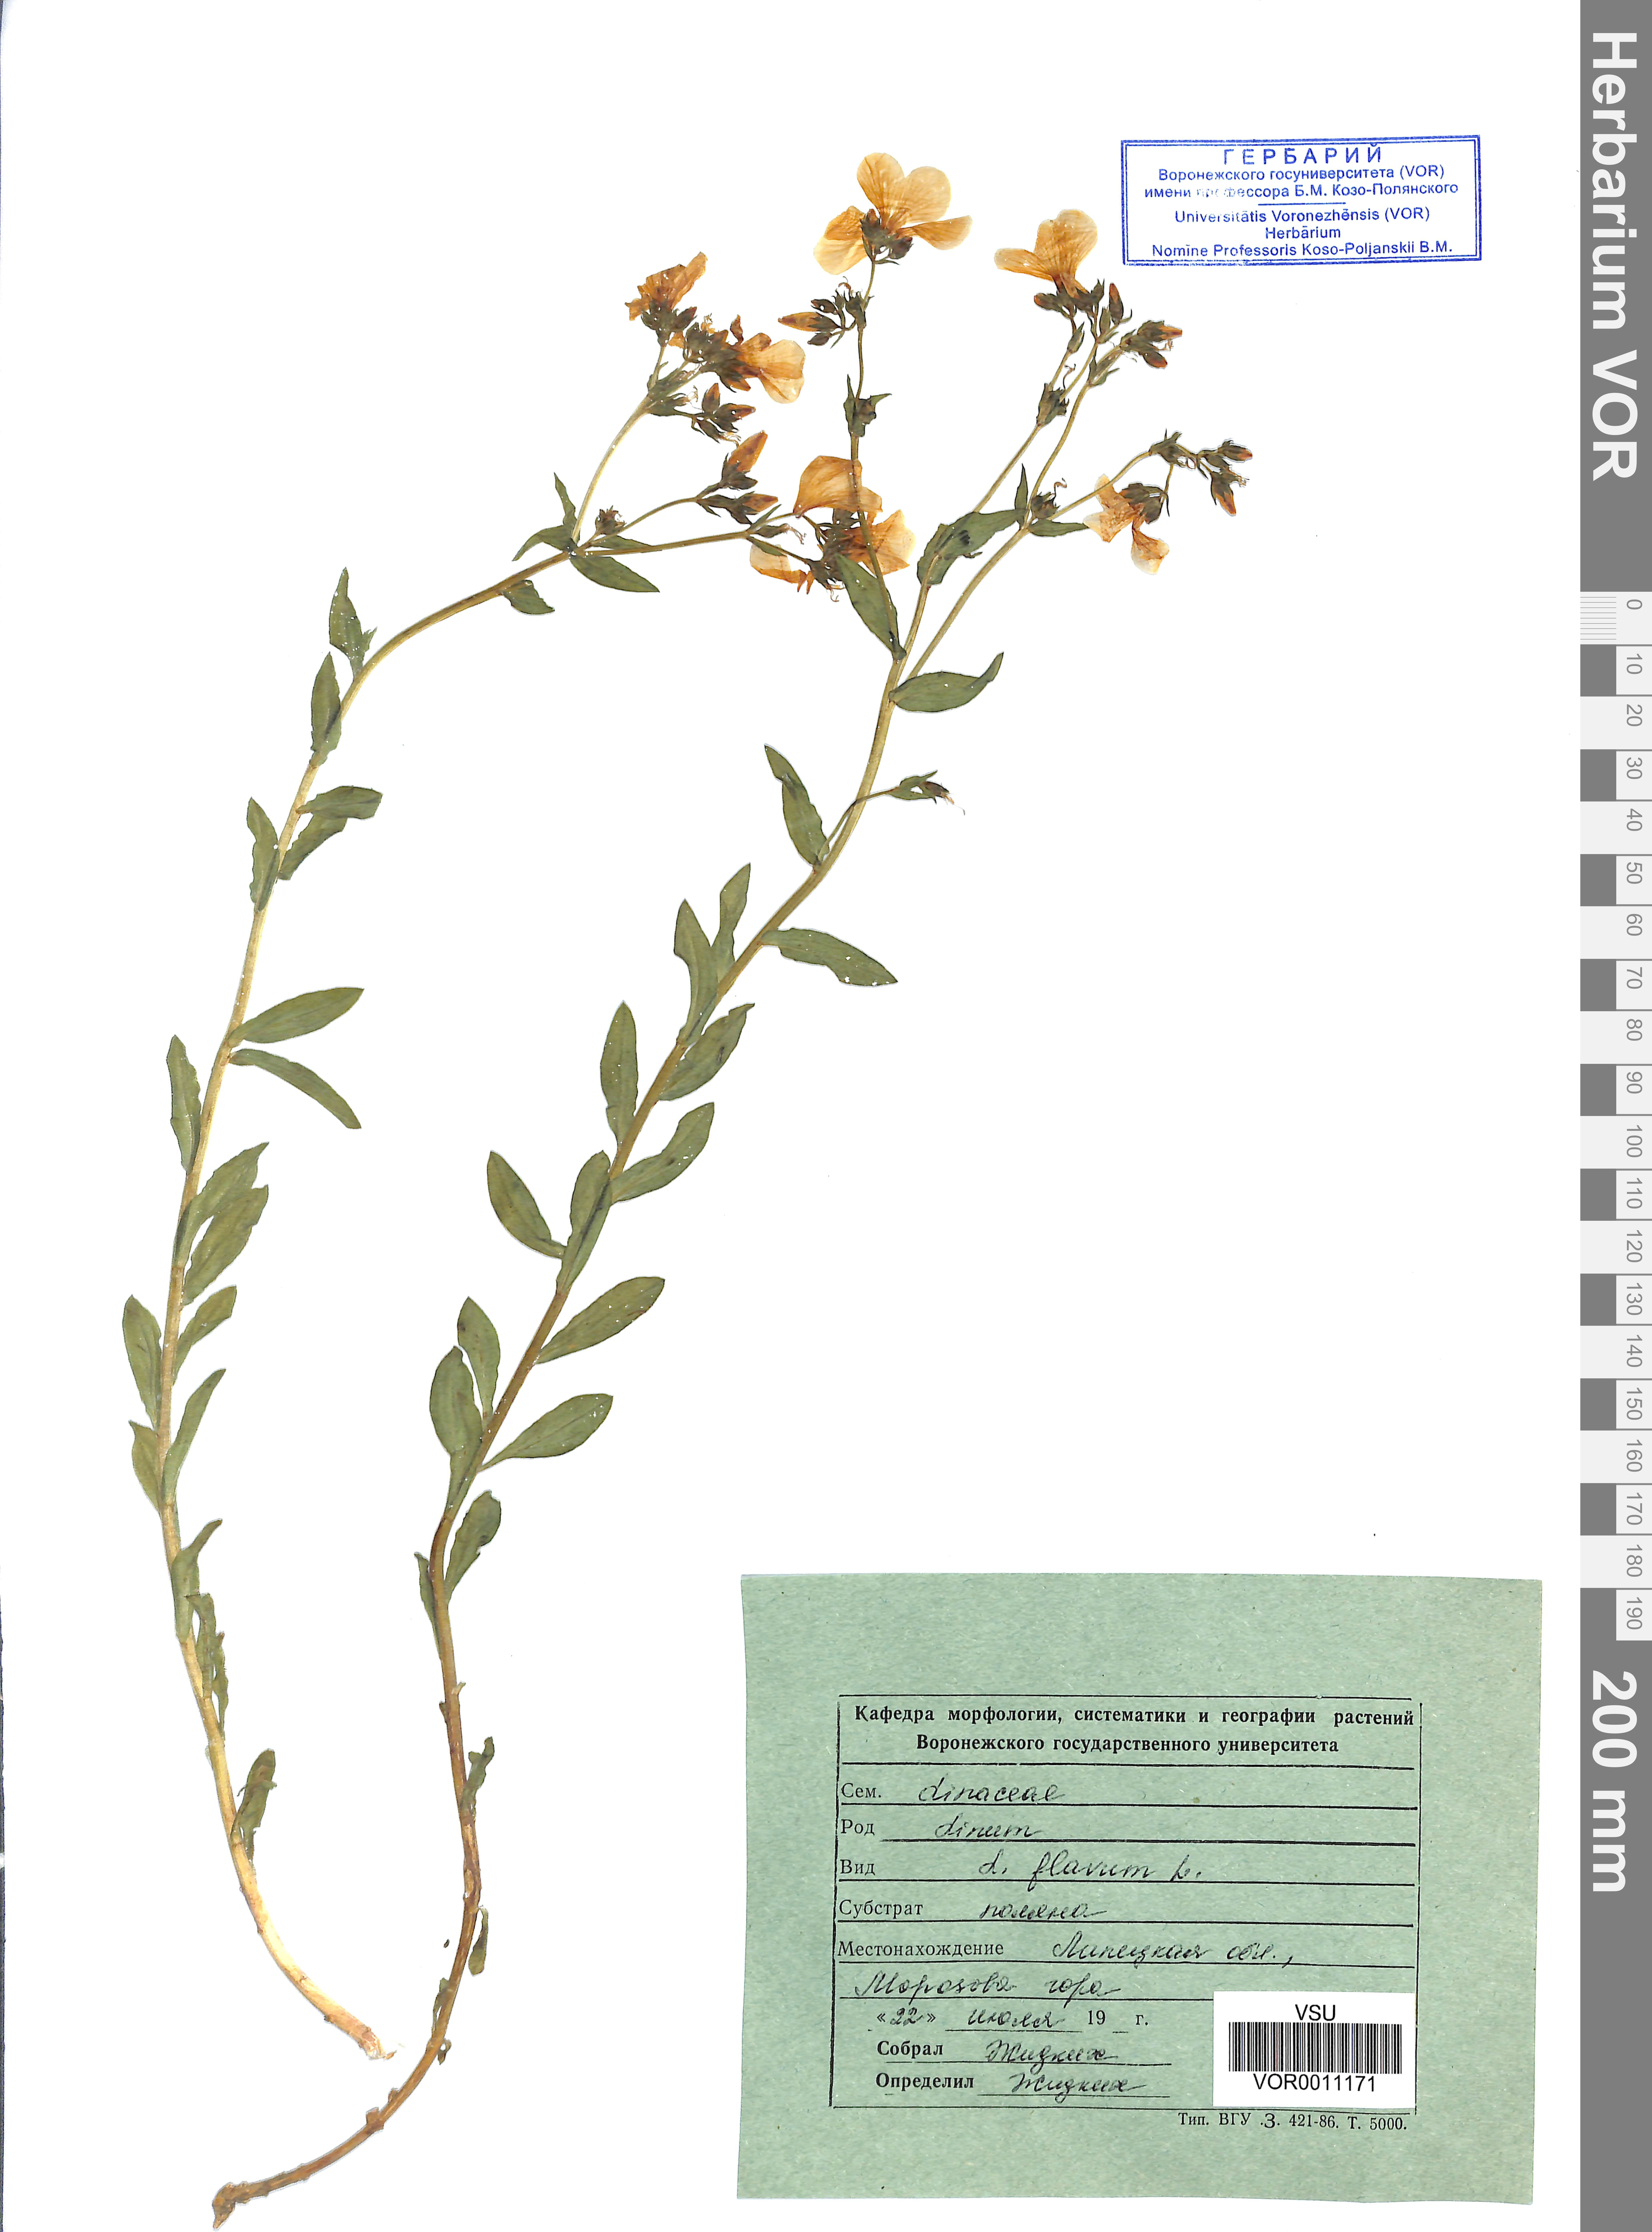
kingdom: Plantae
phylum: Tracheophyta
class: Magnoliopsida
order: Malpighiales
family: Linaceae
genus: Linum
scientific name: Linum flavum
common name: Yellow flax
